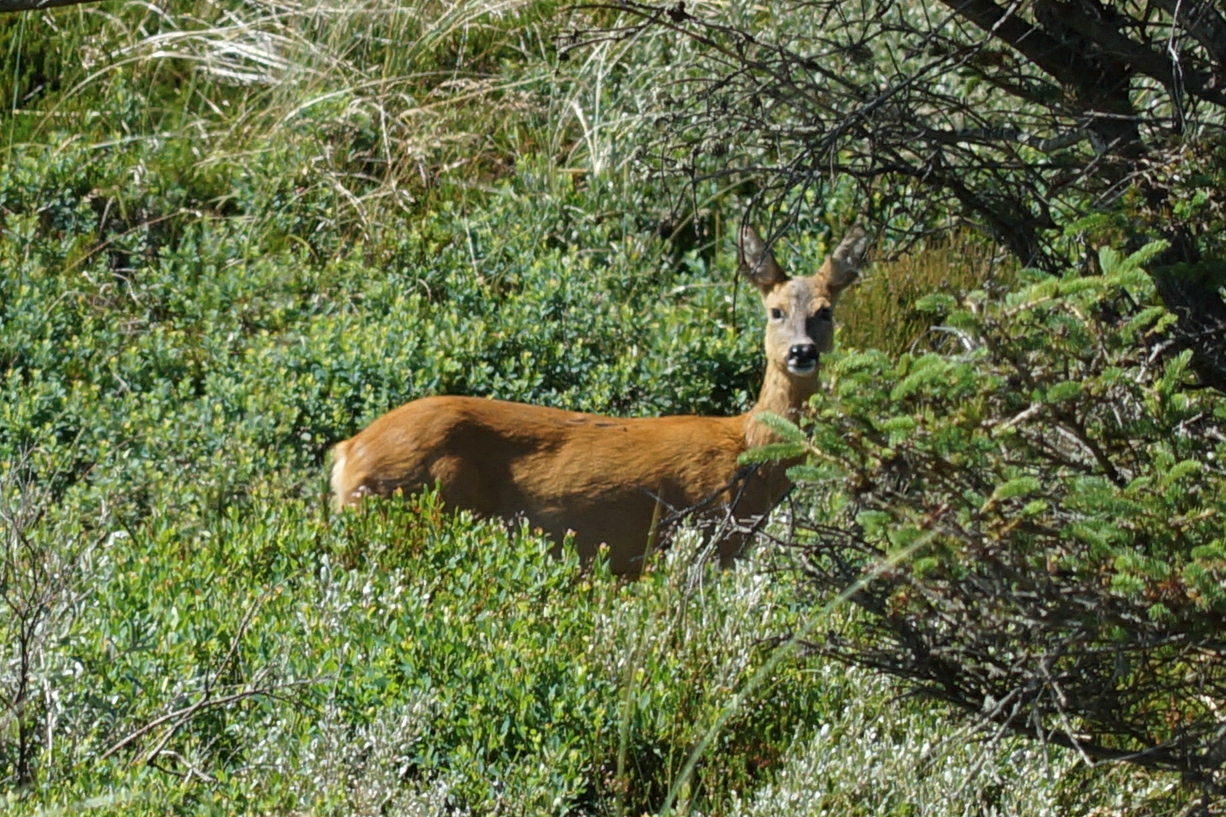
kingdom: Animalia
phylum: Chordata
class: Mammalia
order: Artiodactyla
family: Cervidae
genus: Capreolus
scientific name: Capreolus capreolus
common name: Rådyr
